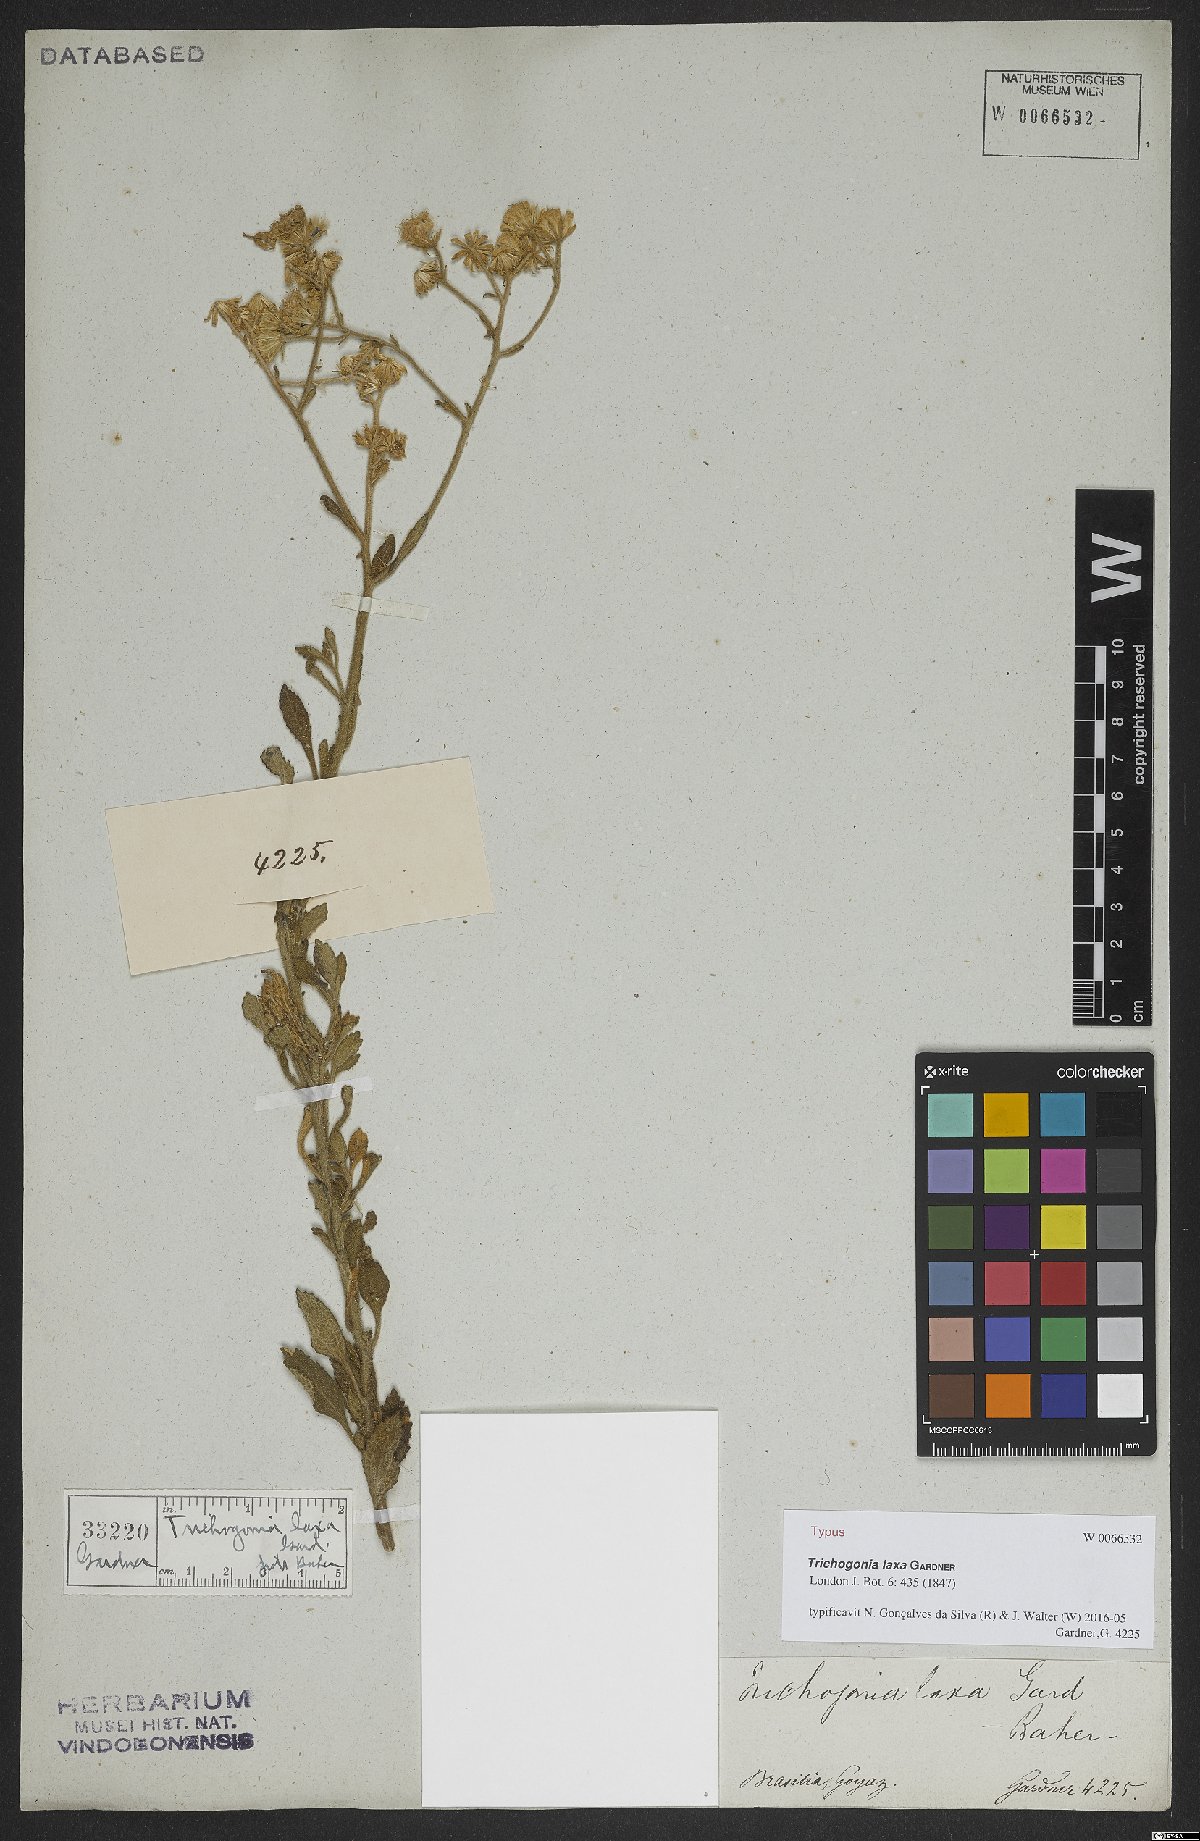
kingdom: Plantae
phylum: Tracheophyta
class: Magnoliopsida
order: Asterales
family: Asteraceae
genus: Trichogonia
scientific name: Trichogonia laxa
